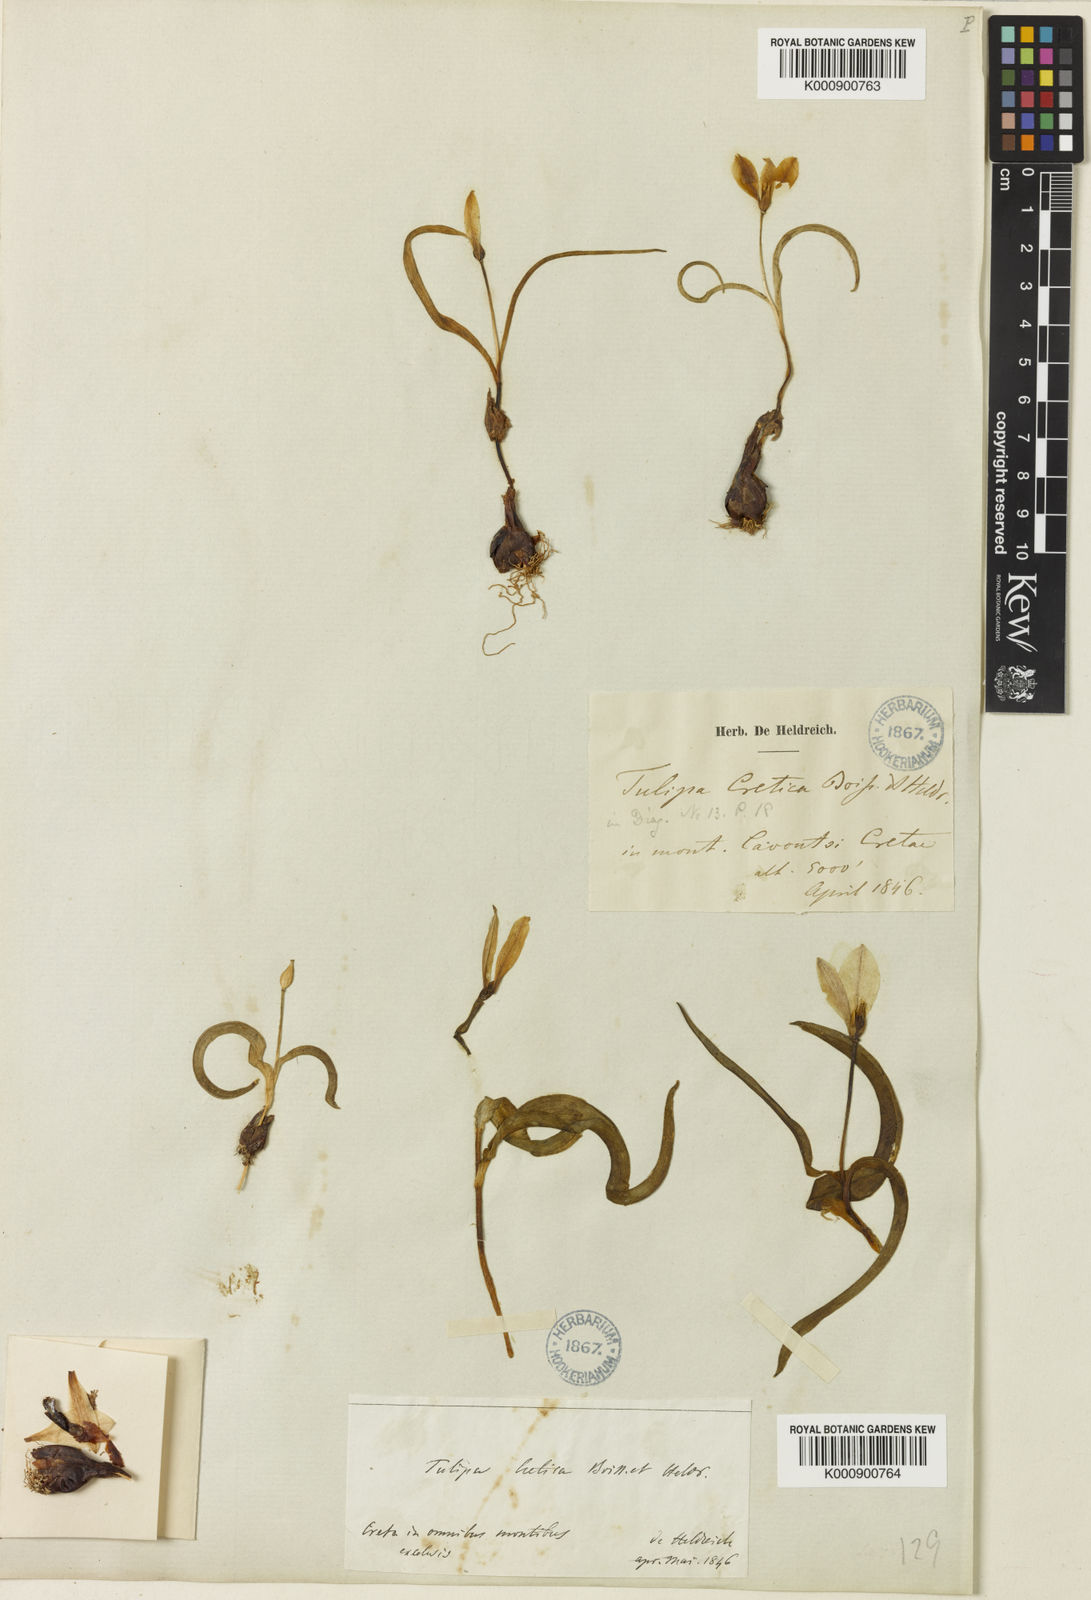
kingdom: Plantae
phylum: Tracheophyta
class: Liliopsida
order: Liliales
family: Liliaceae
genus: Tulipa
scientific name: Tulipa cretica
